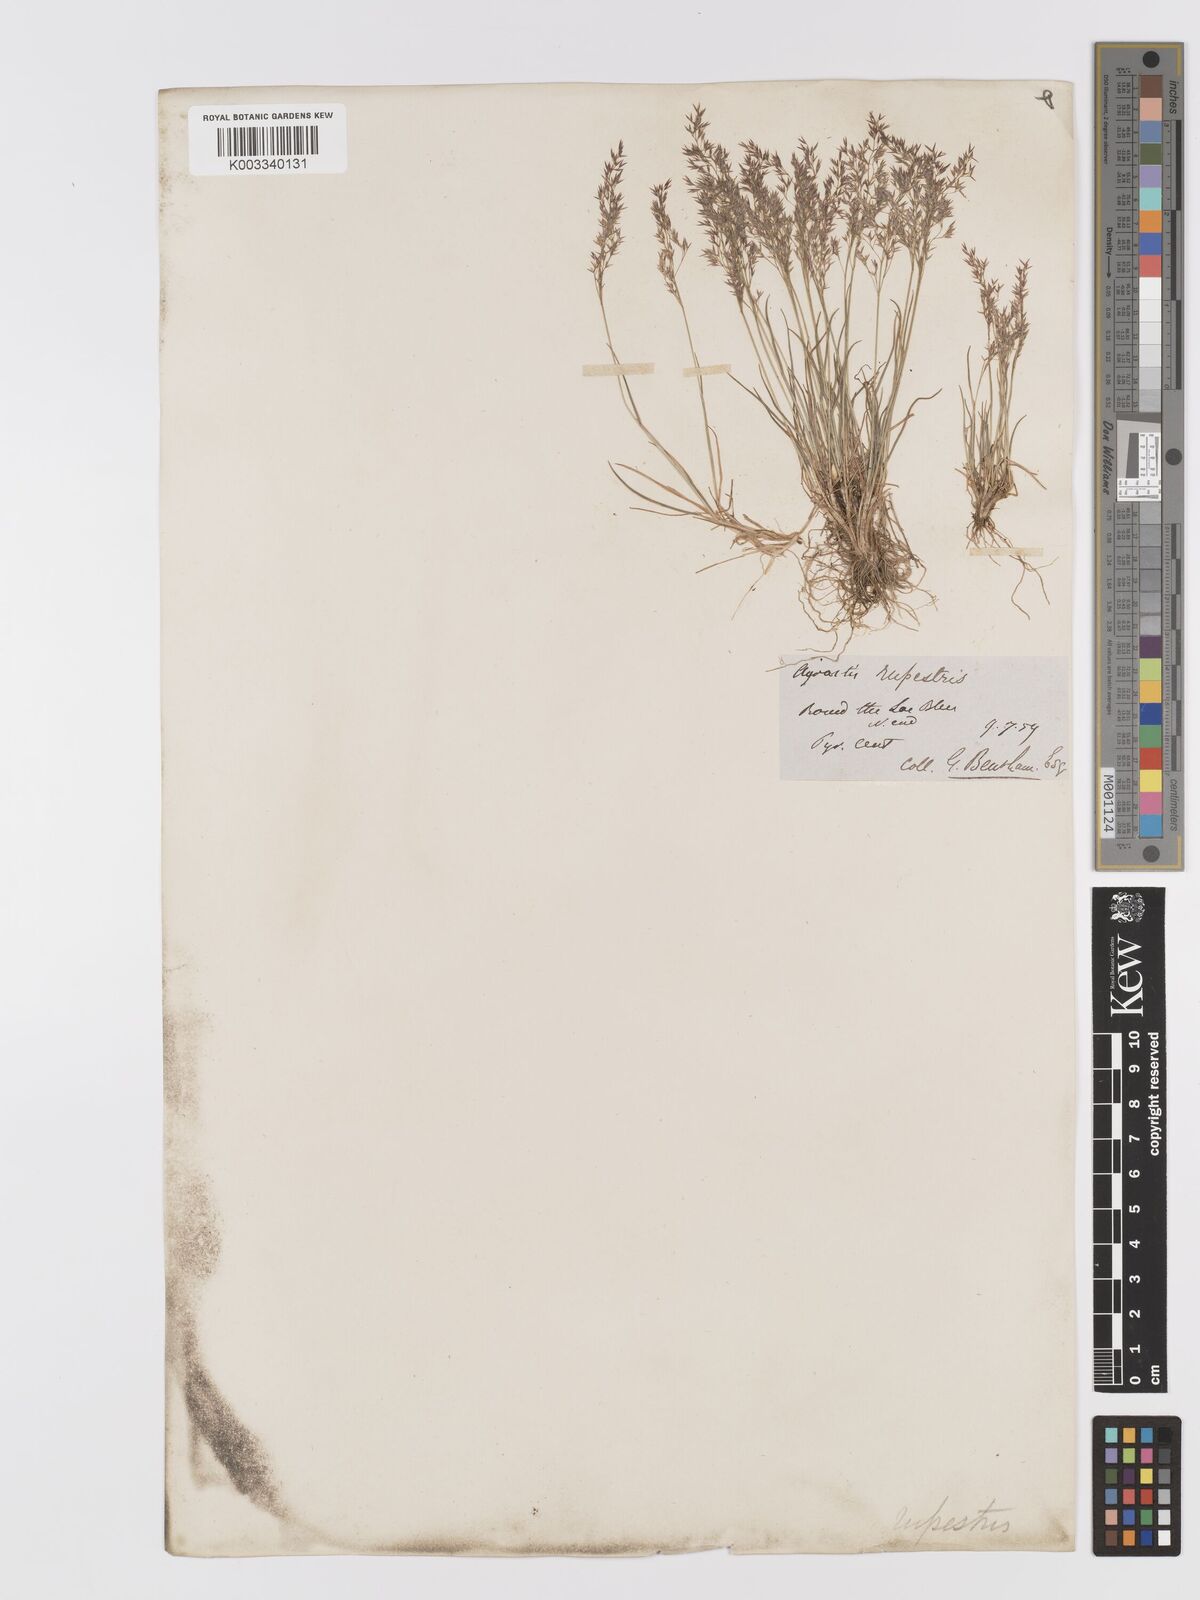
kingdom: Plantae
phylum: Tracheophyta
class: Liliopsida
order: Poales
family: Poaceae
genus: Agrostis
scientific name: Agrostis rupestris
